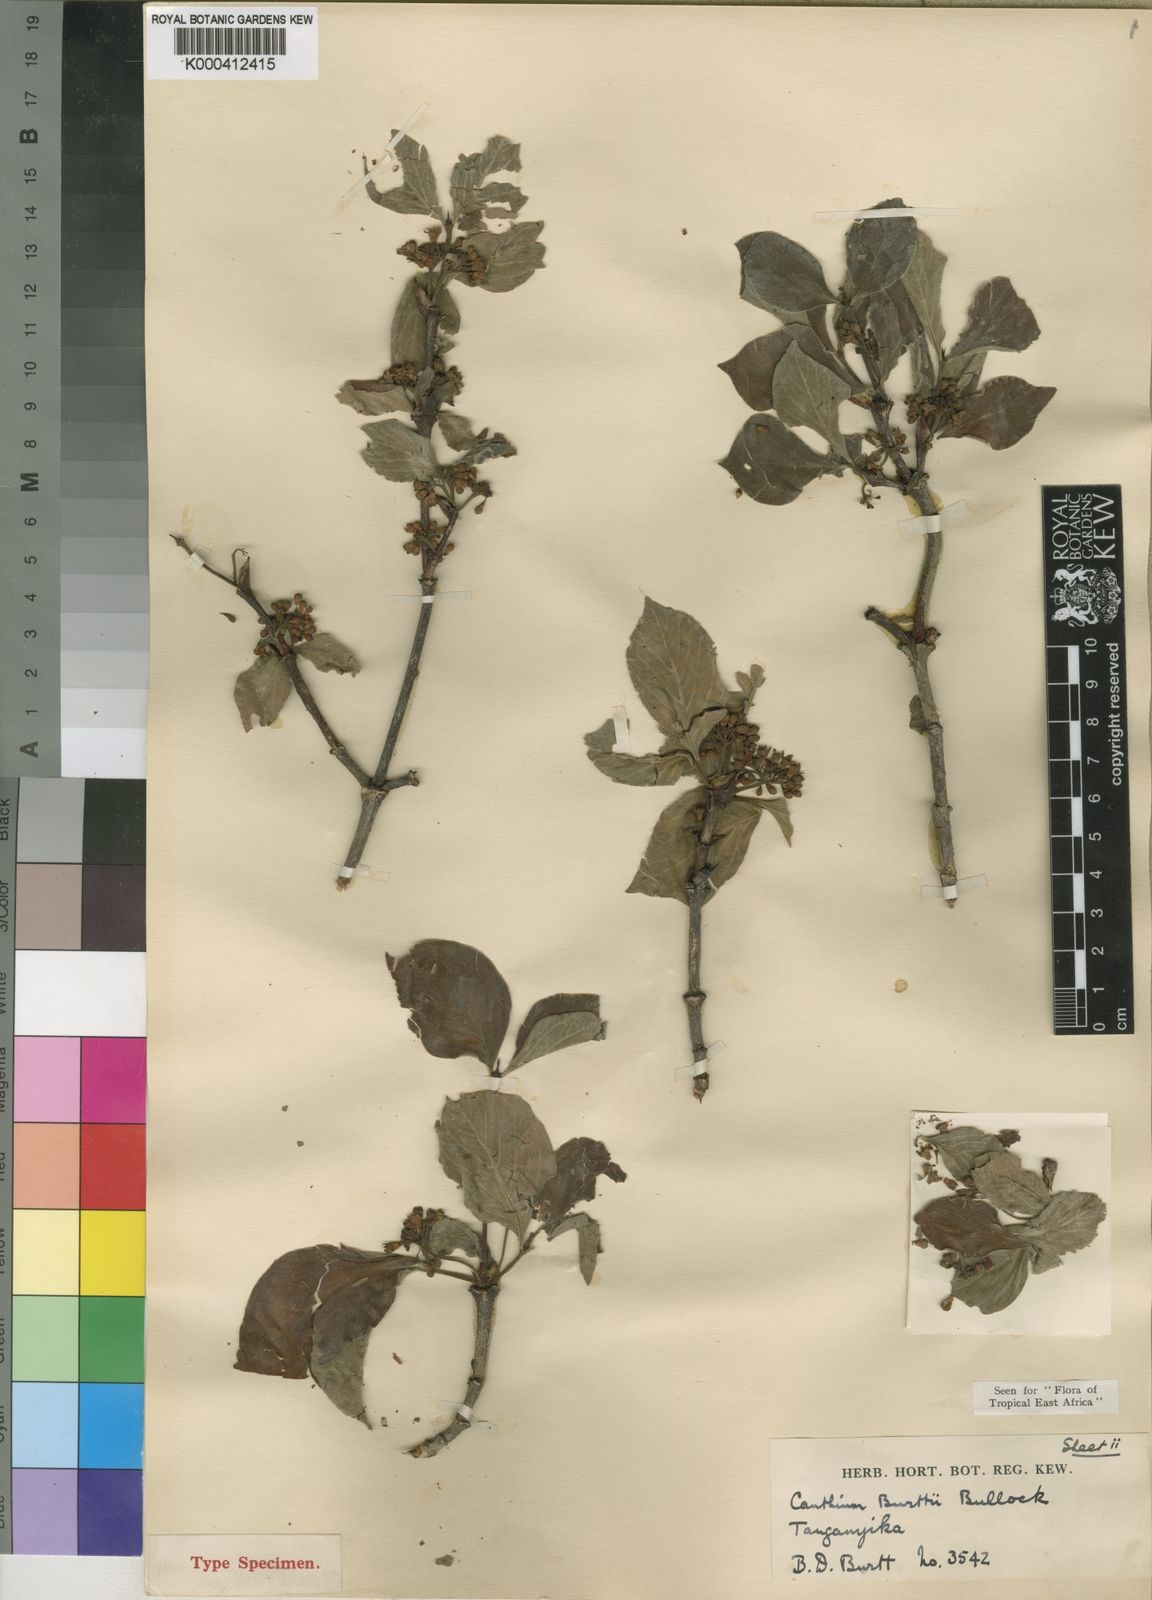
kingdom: Plantae
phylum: Tracheophyta
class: Magnoliopsida
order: Gentianales
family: Rubiaceae
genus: Afrocanthium
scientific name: Afrocanthium burttii
